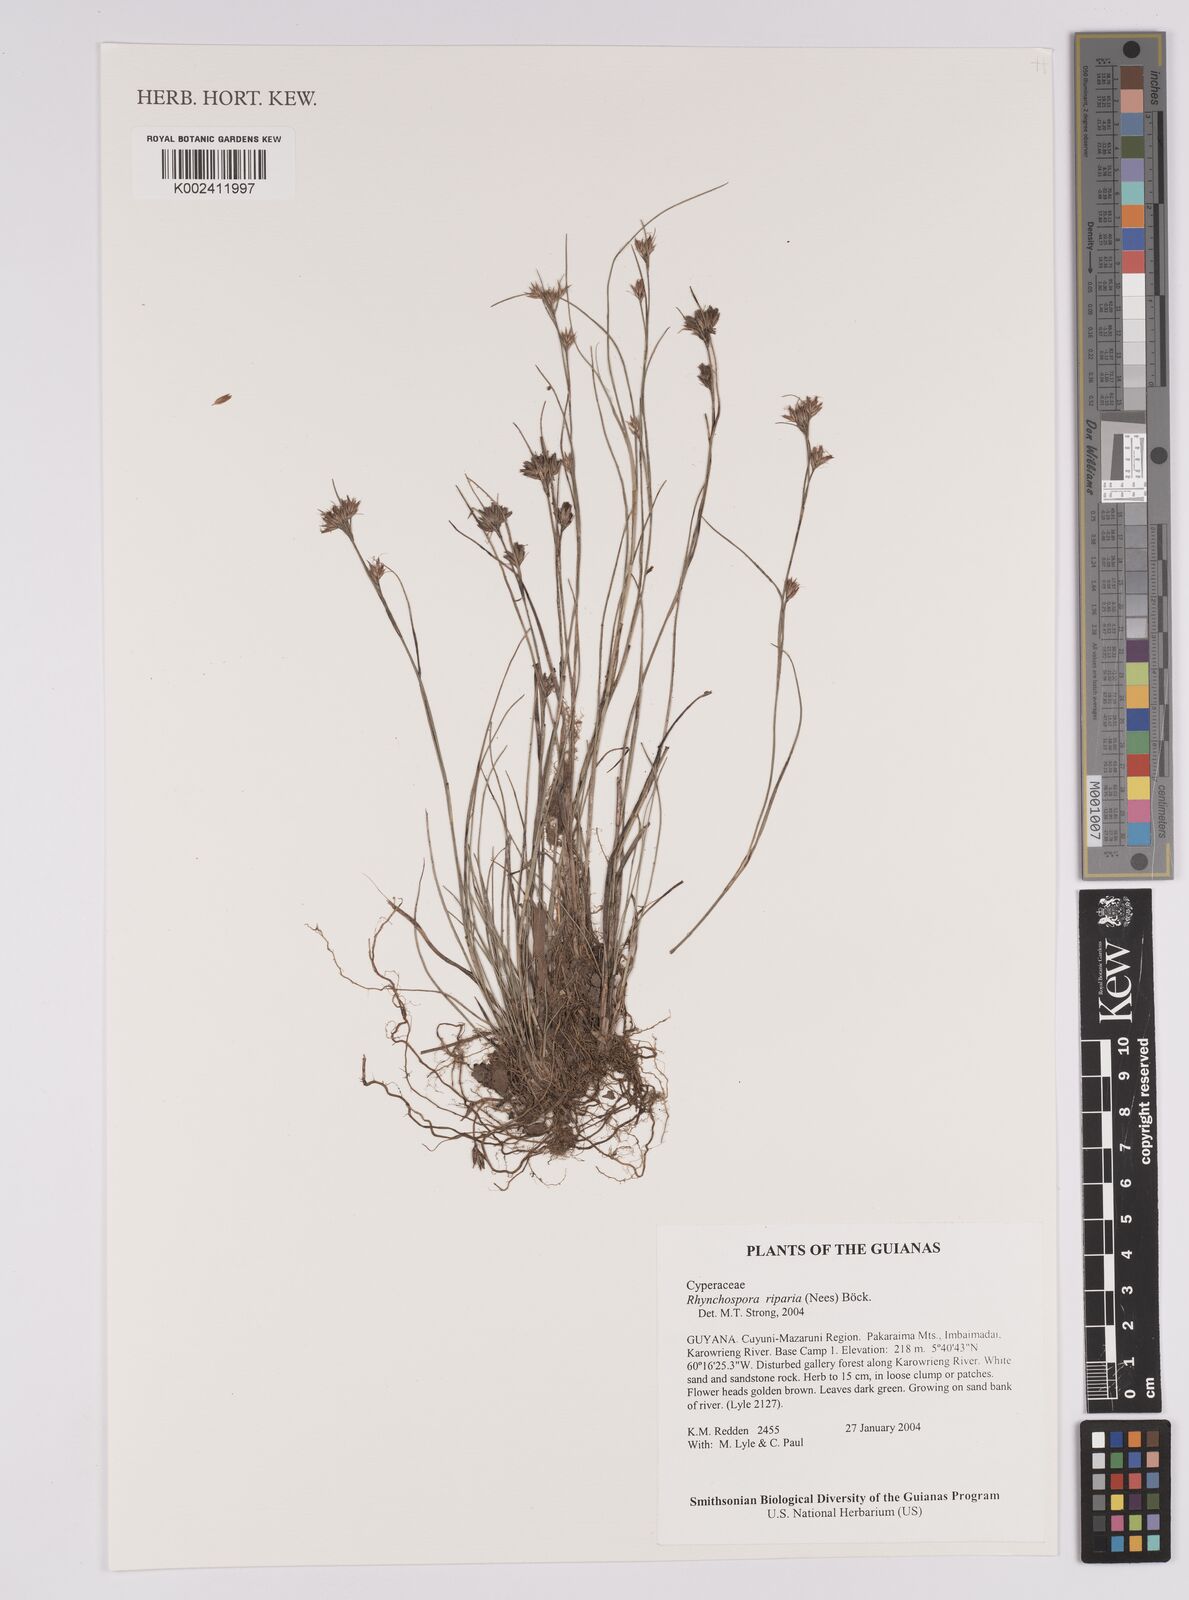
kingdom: Plantae
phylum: Tracheophyta
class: Liliopsida
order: Poales
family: Cyperaceae
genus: Rhynchospora
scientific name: Rhynchospora riparia
